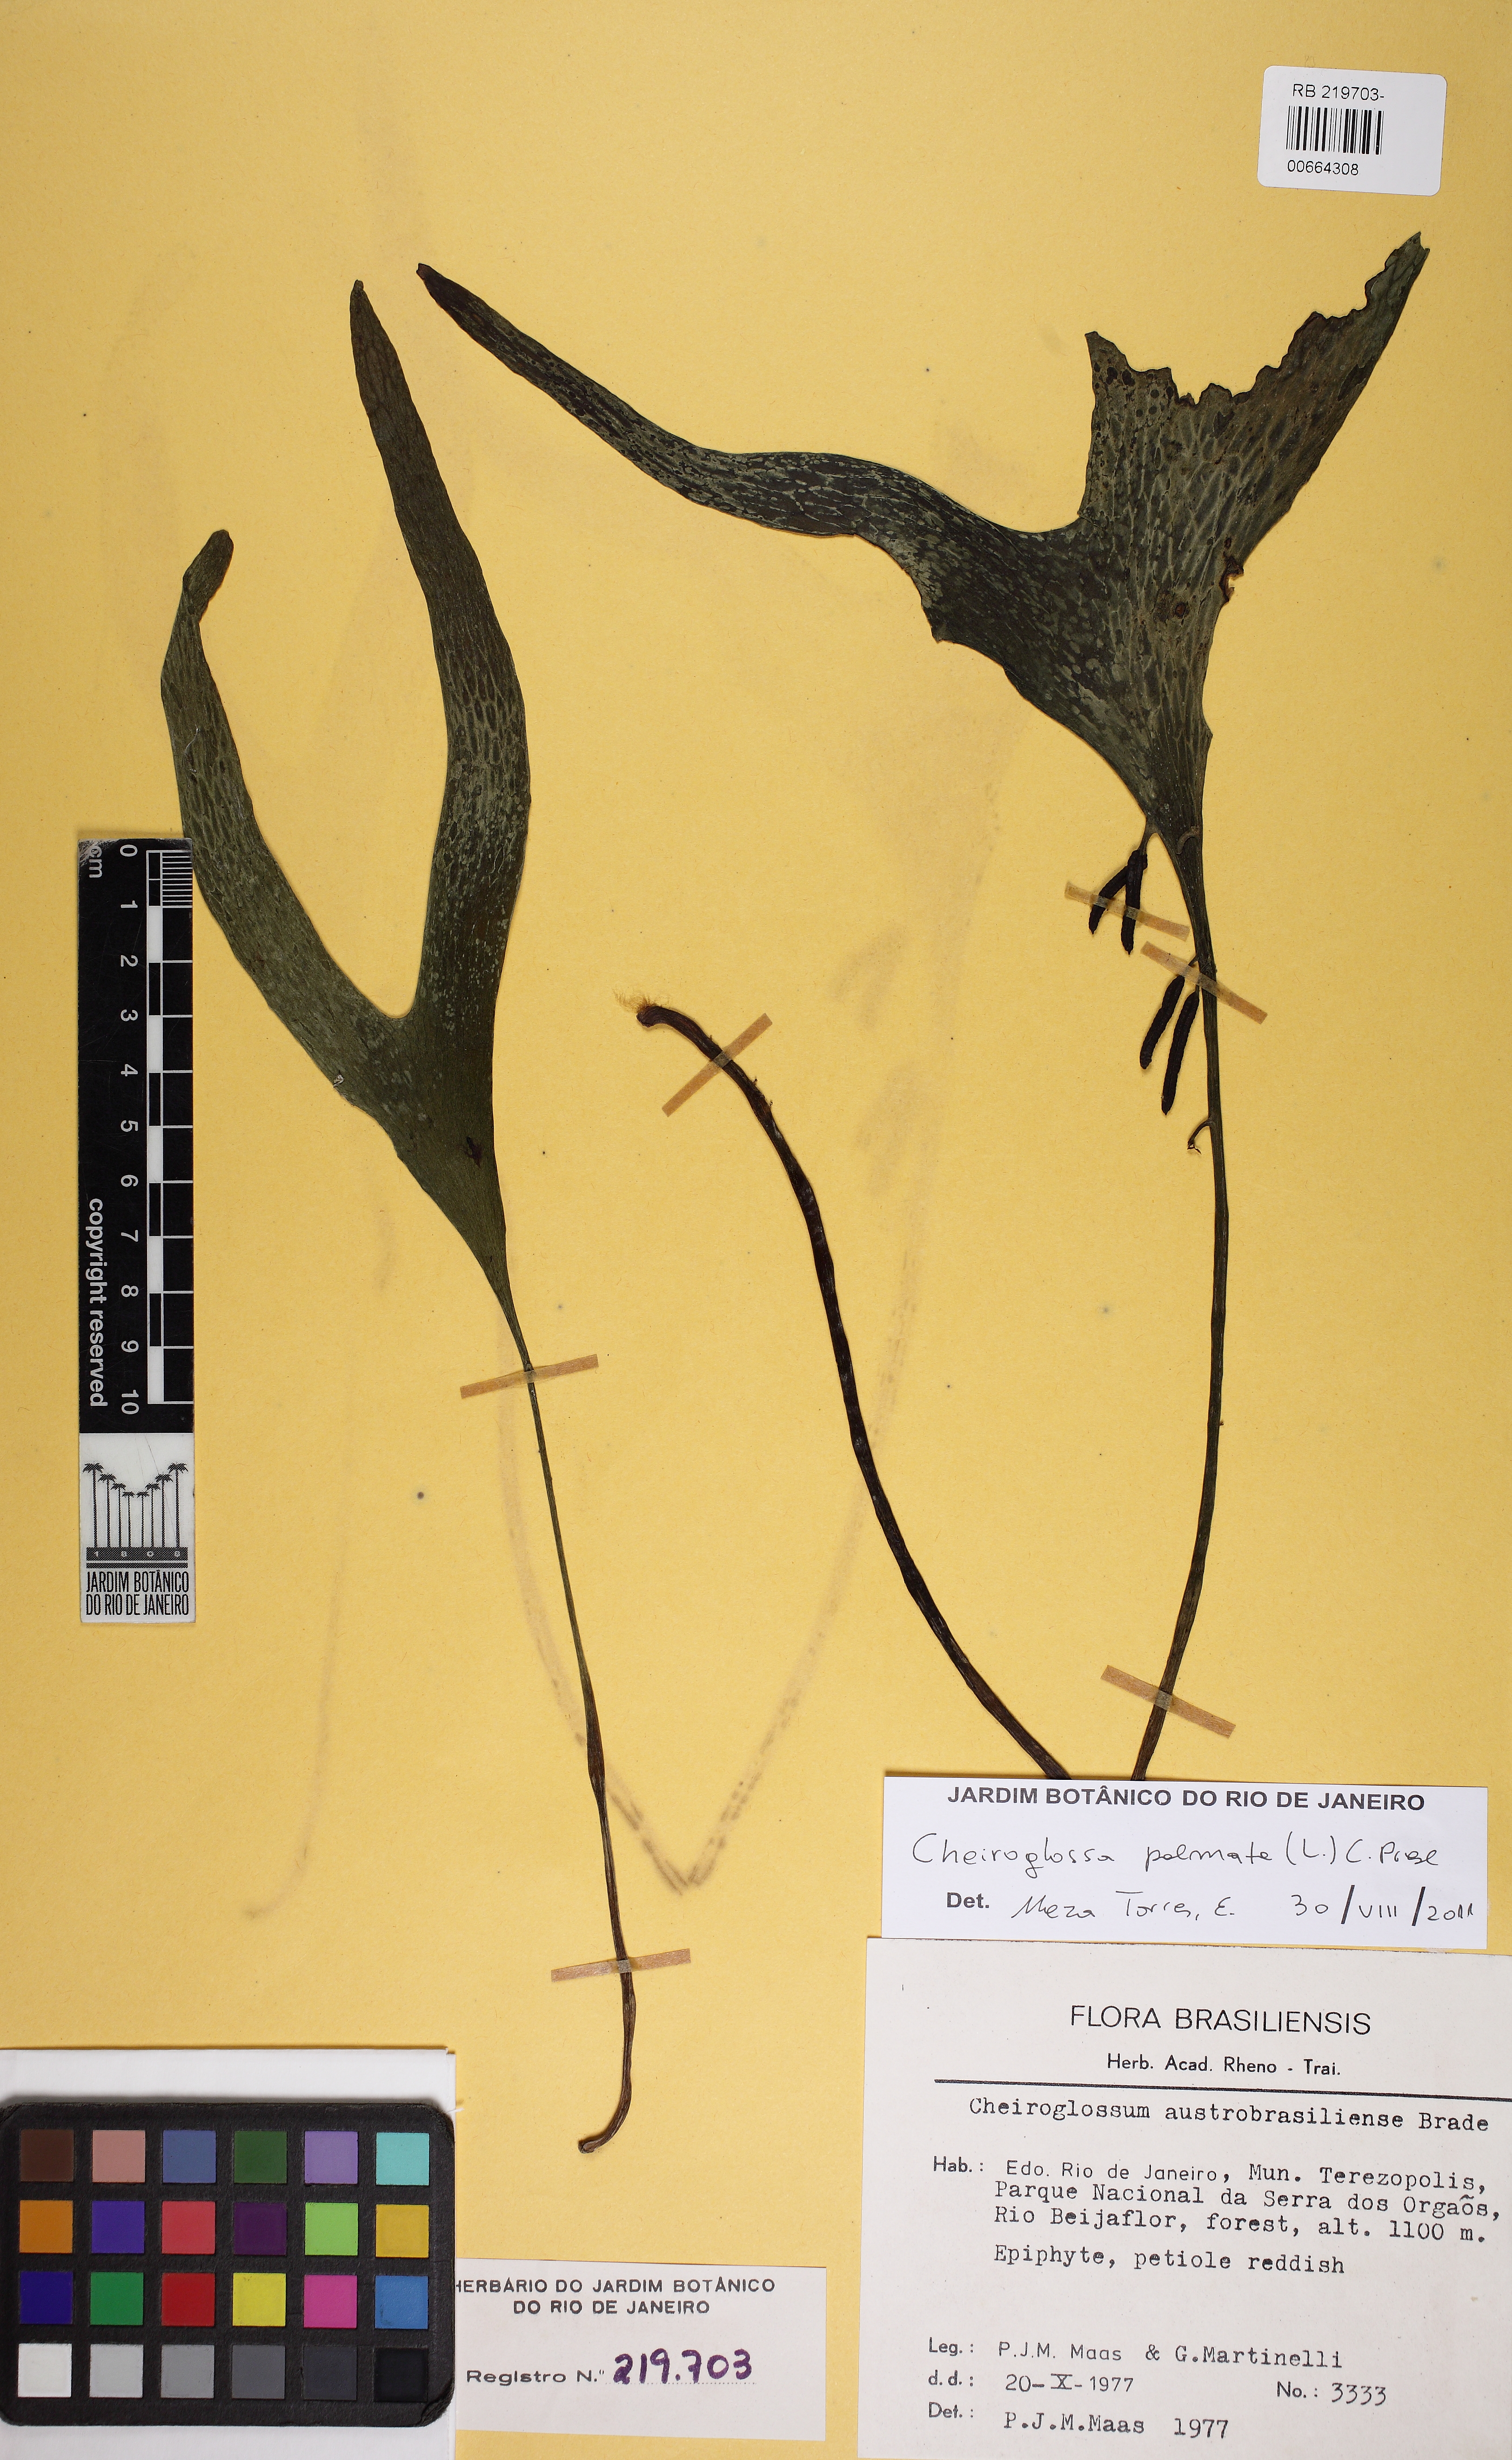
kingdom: Plantae
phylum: Tracheophyta
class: Polypodiopsida
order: Ophioglossales
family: Ophioglossaceae
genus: Cheiroglossa
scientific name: Cheiroglossa palmata
